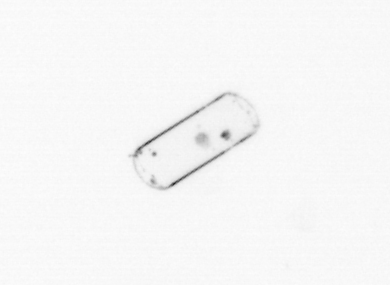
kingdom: Chromista
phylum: Ochrophyta
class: Bacillariophyceae
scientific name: Bacillariophyceae
